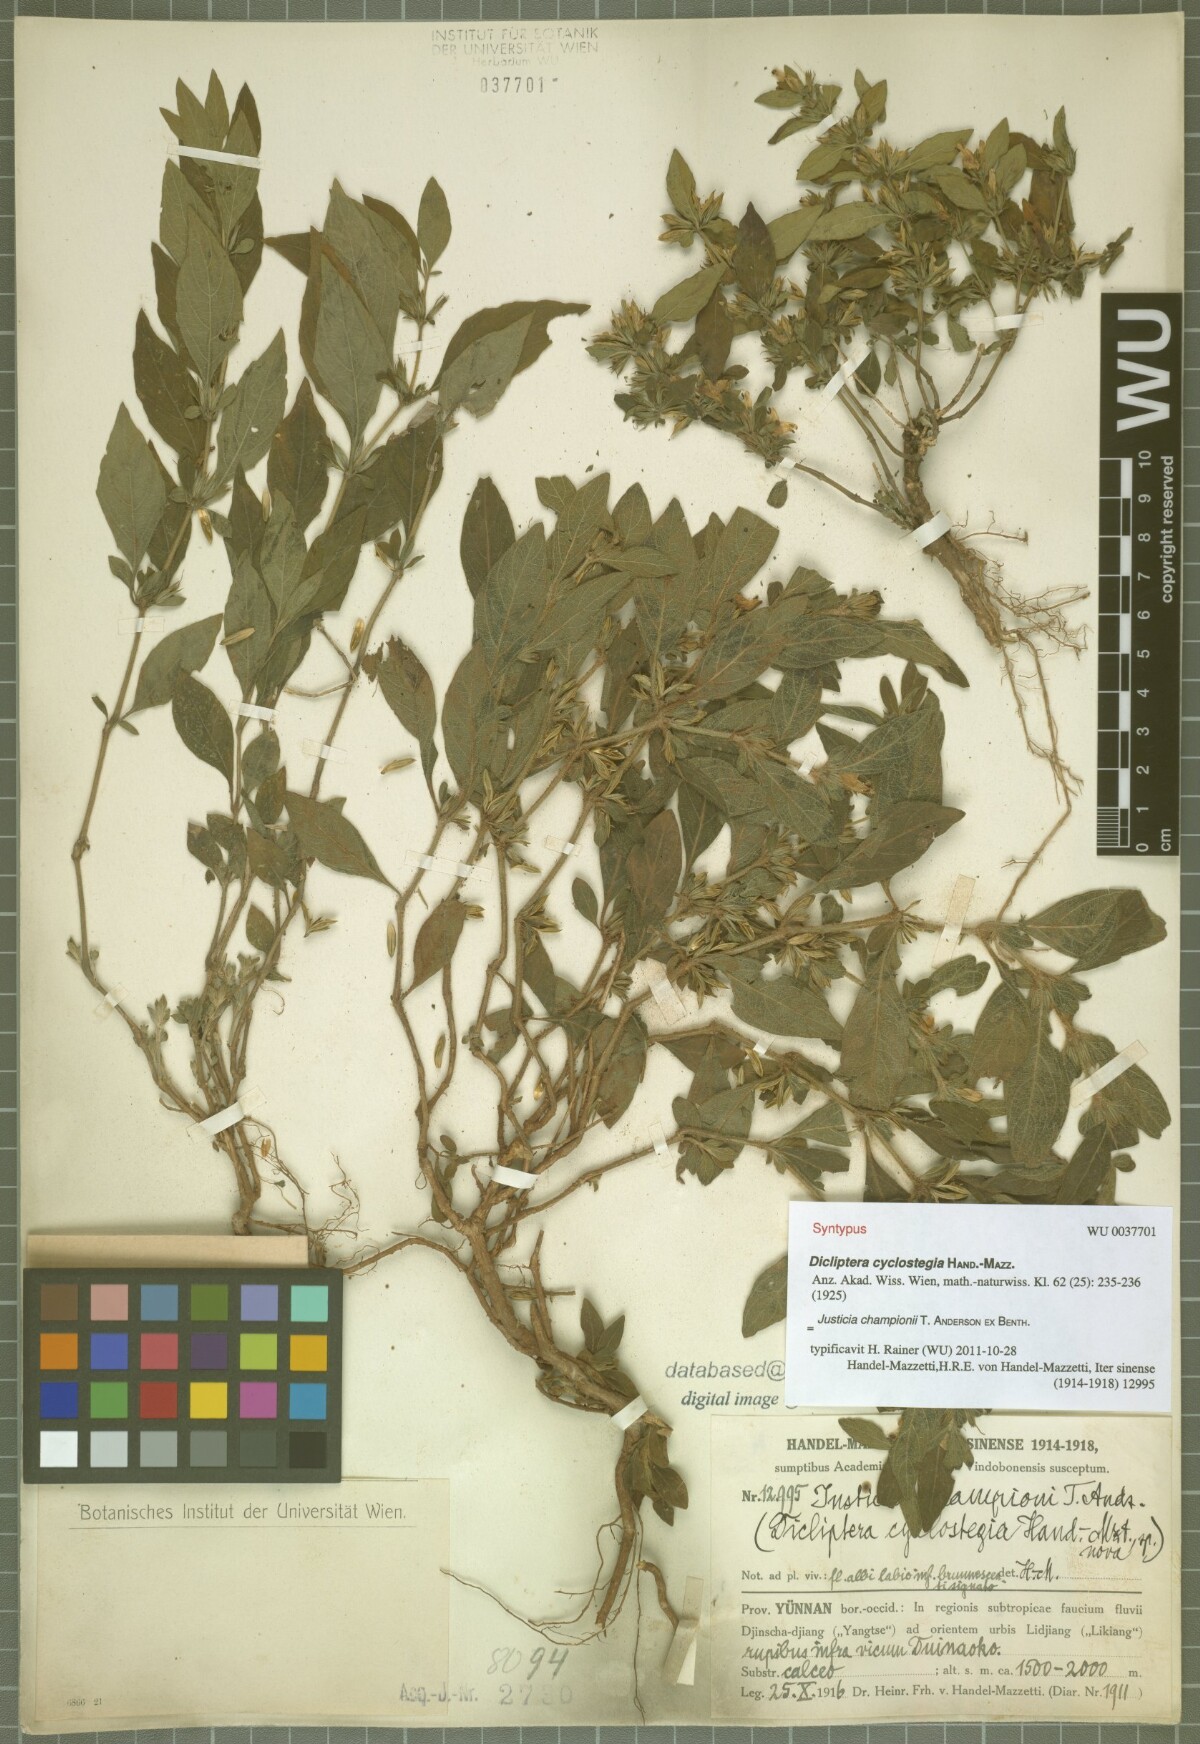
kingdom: Plantae
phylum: Tracheophyta
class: Magnoliopsida
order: Lamiales
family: Acanthaceae
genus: Justicia
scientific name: Justicia cyclostegia
